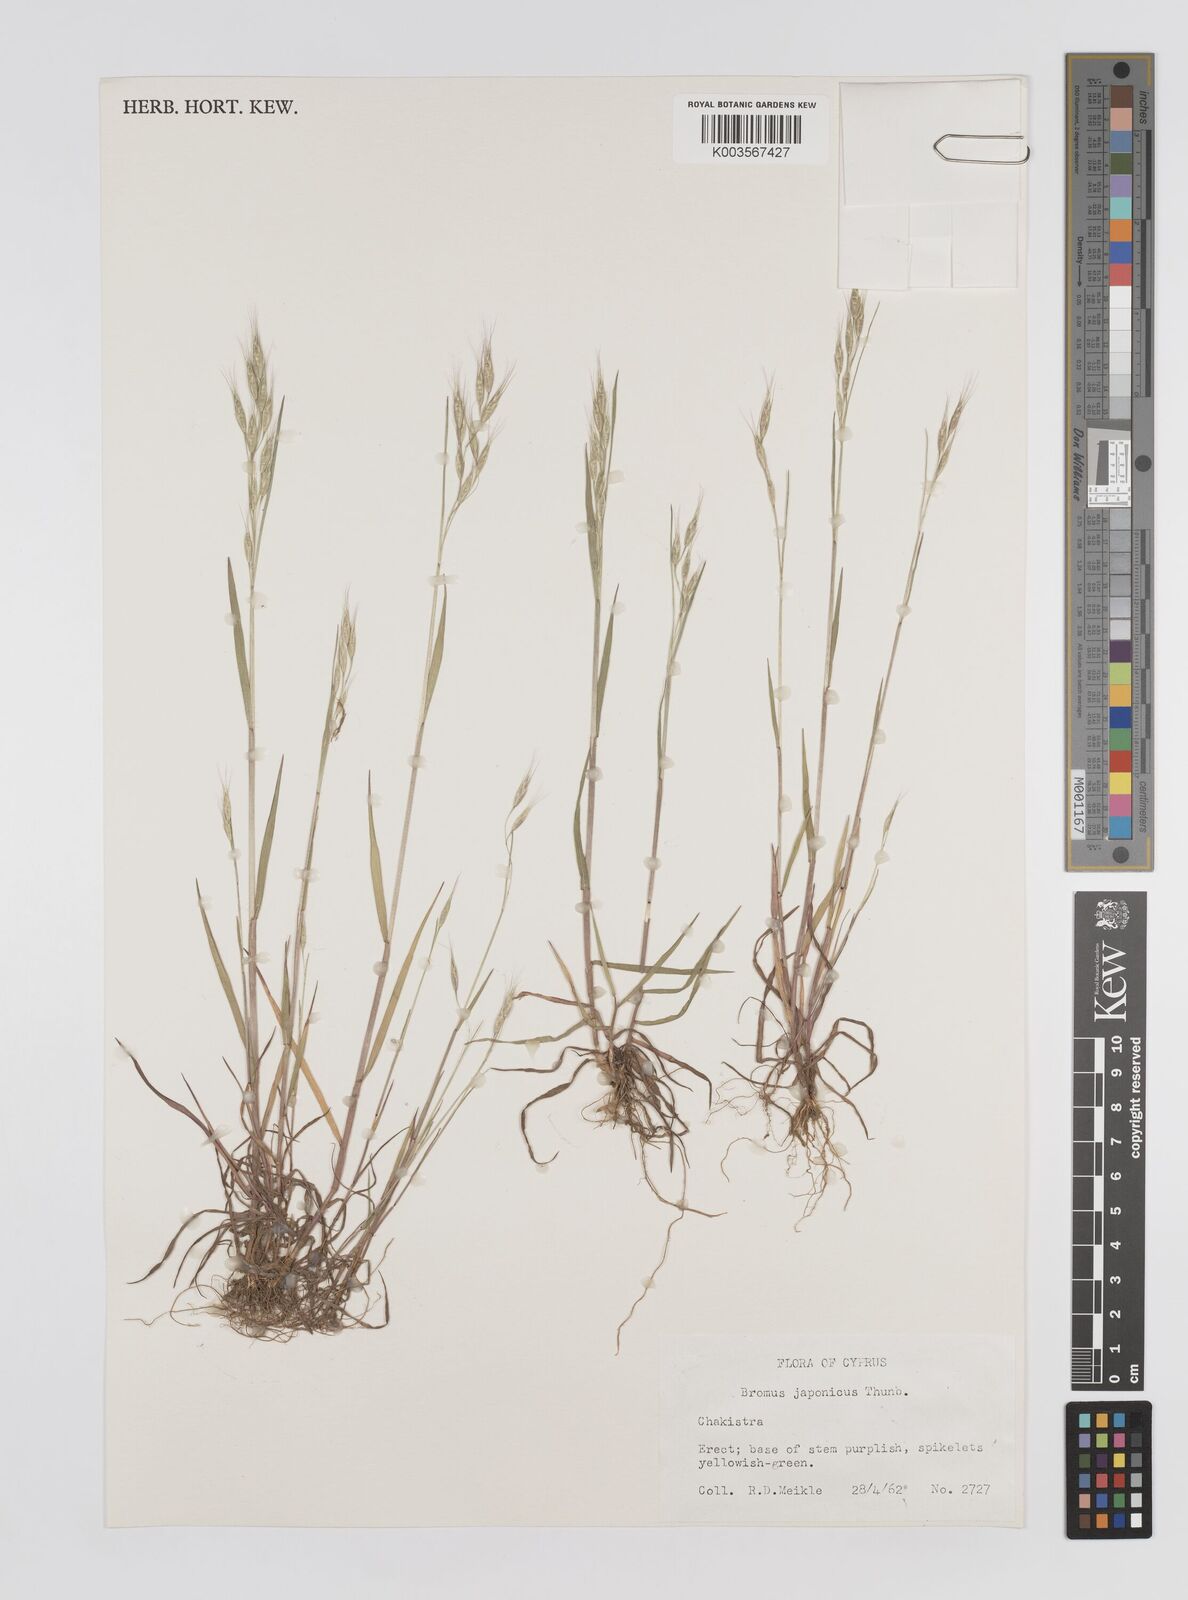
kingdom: Plantae
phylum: Tracheophyta
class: Liliopsida
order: Poales
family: Poaceae
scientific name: Poaceae
